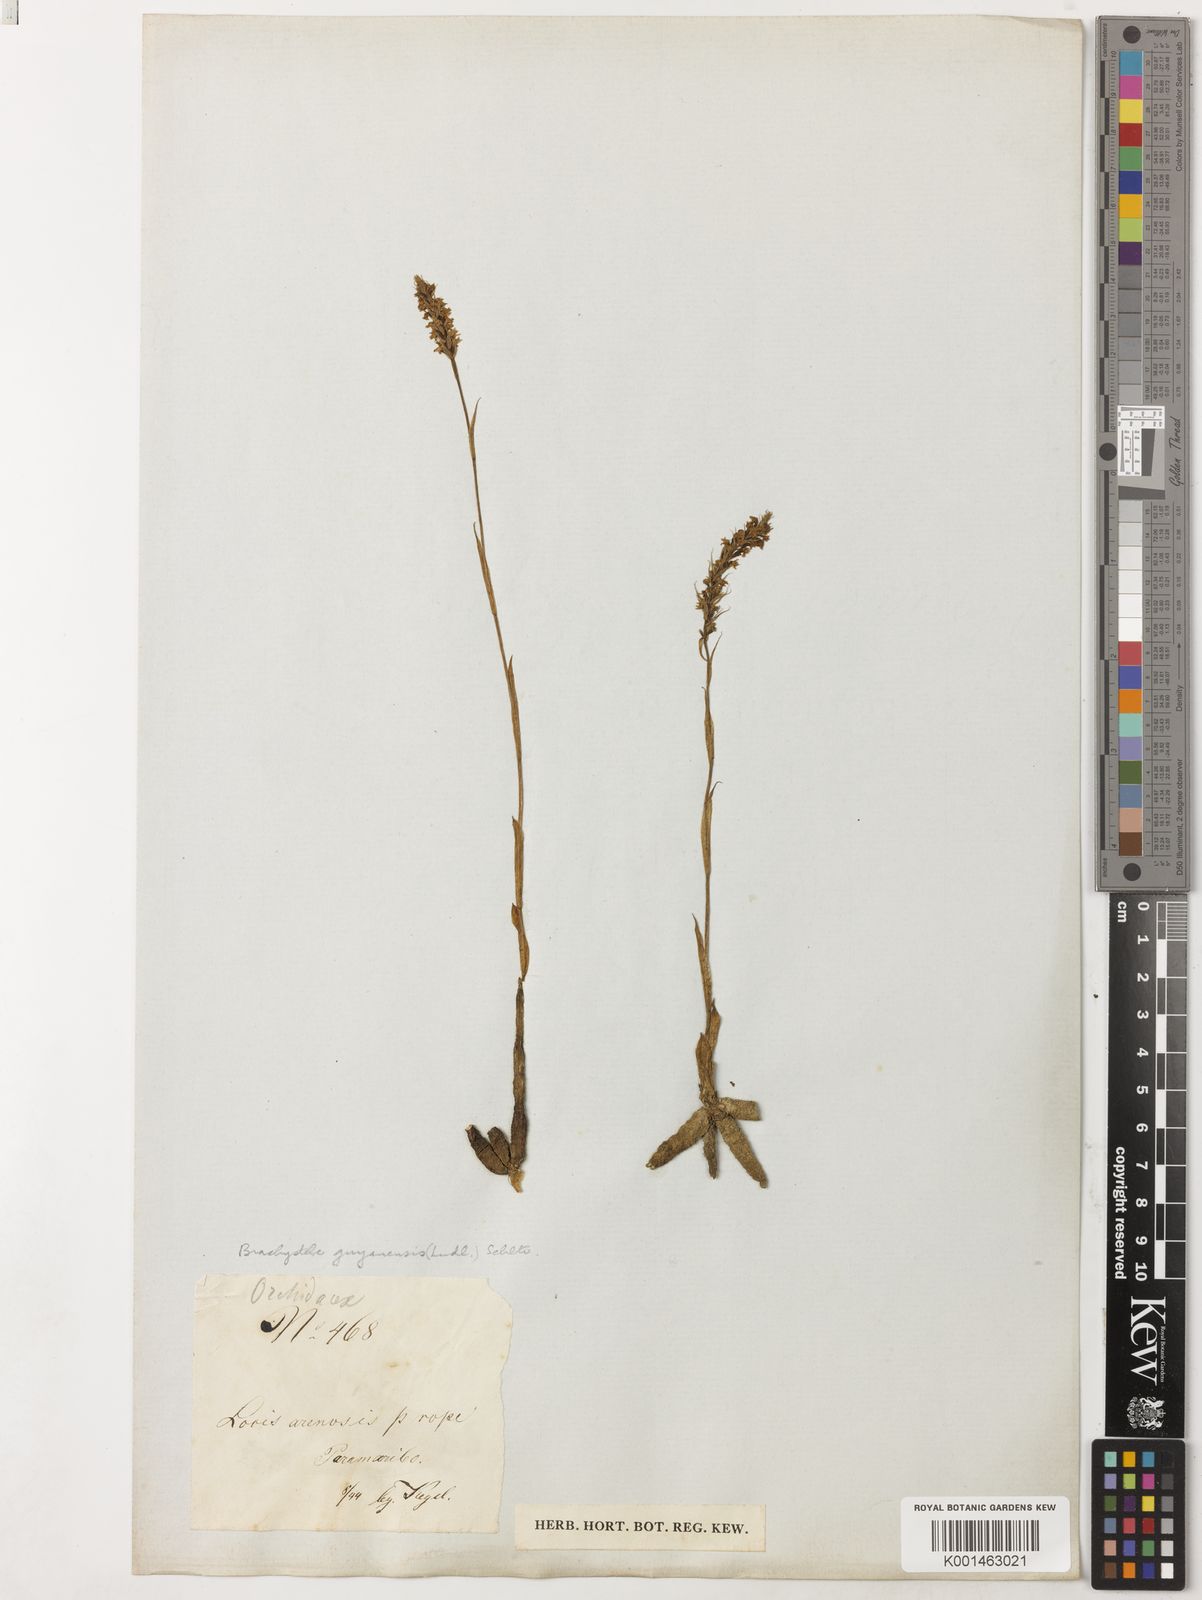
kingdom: Plantae
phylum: Tracheophyta
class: Liliopsida
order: Asparagales
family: Orchidaceae
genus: Brachystele
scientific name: Brachystele guayanensis
